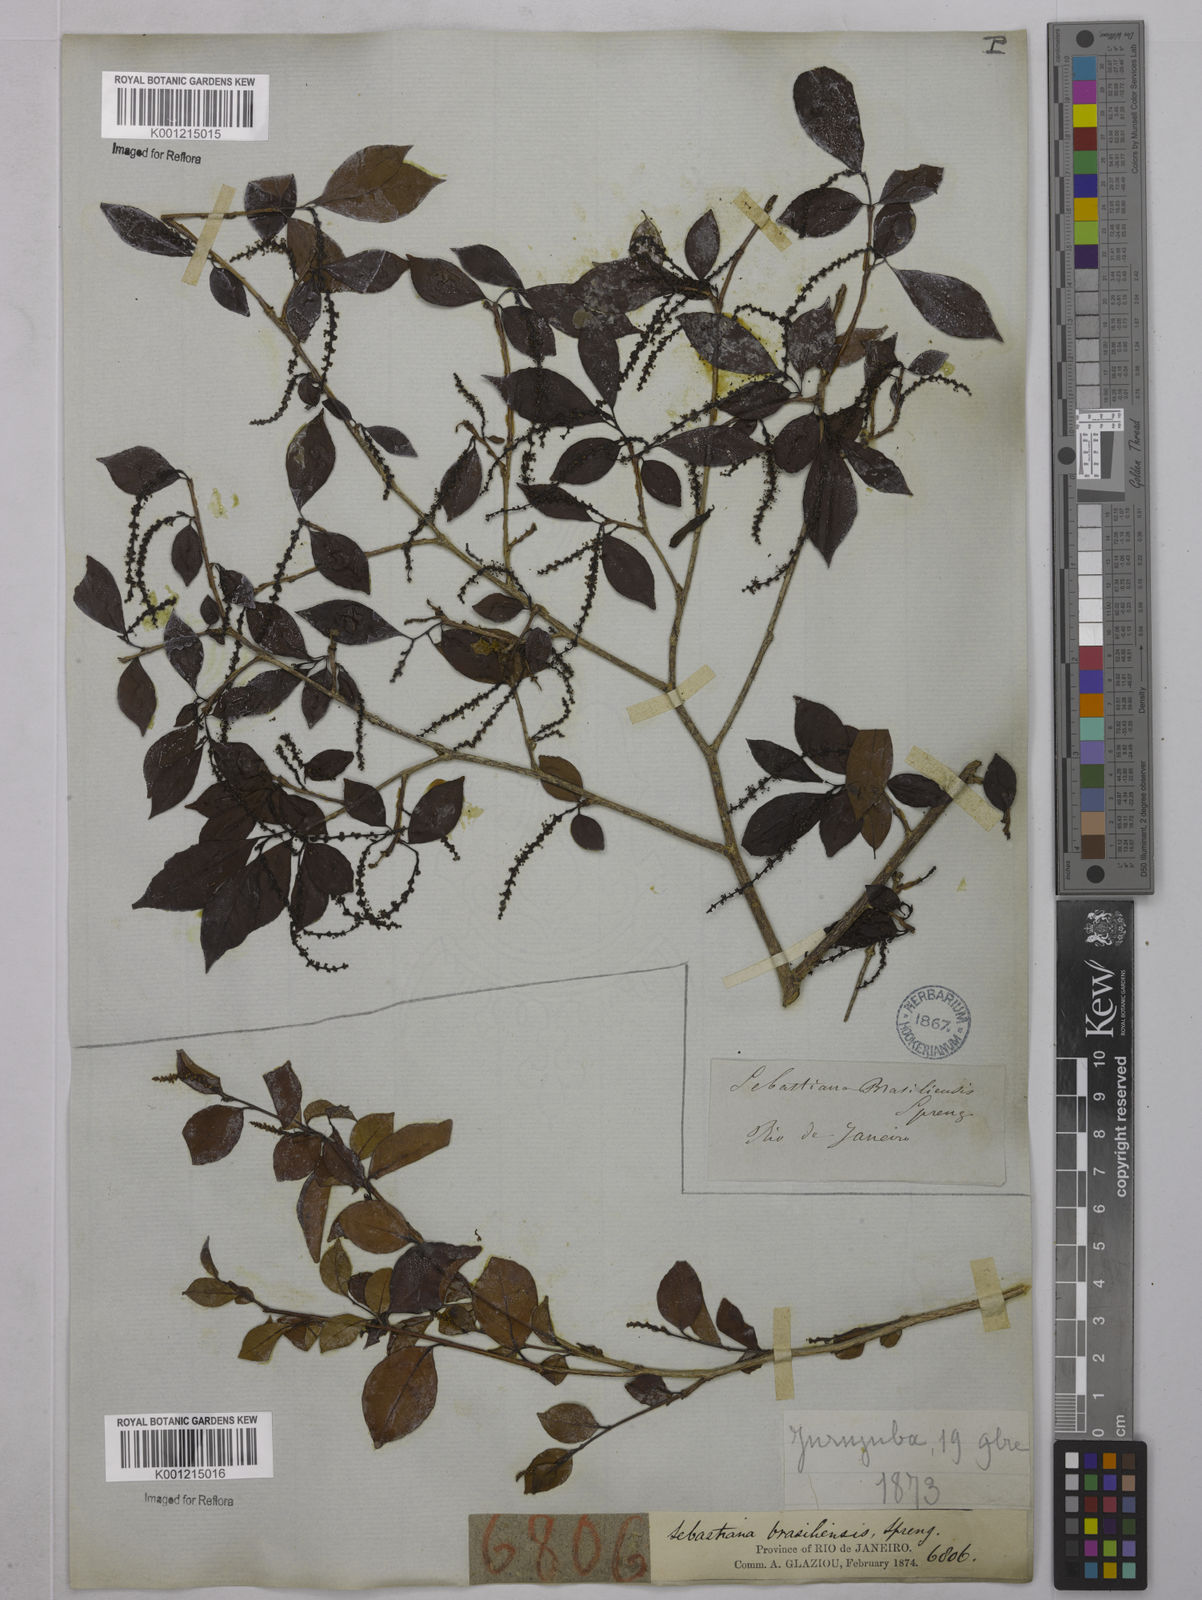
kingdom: Plantae
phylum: Tracheophyta
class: Magnoliopsida
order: Malpighiales
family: Euphorbiaceae
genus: Sebastiania
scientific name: Sebastiania brasiliensis
